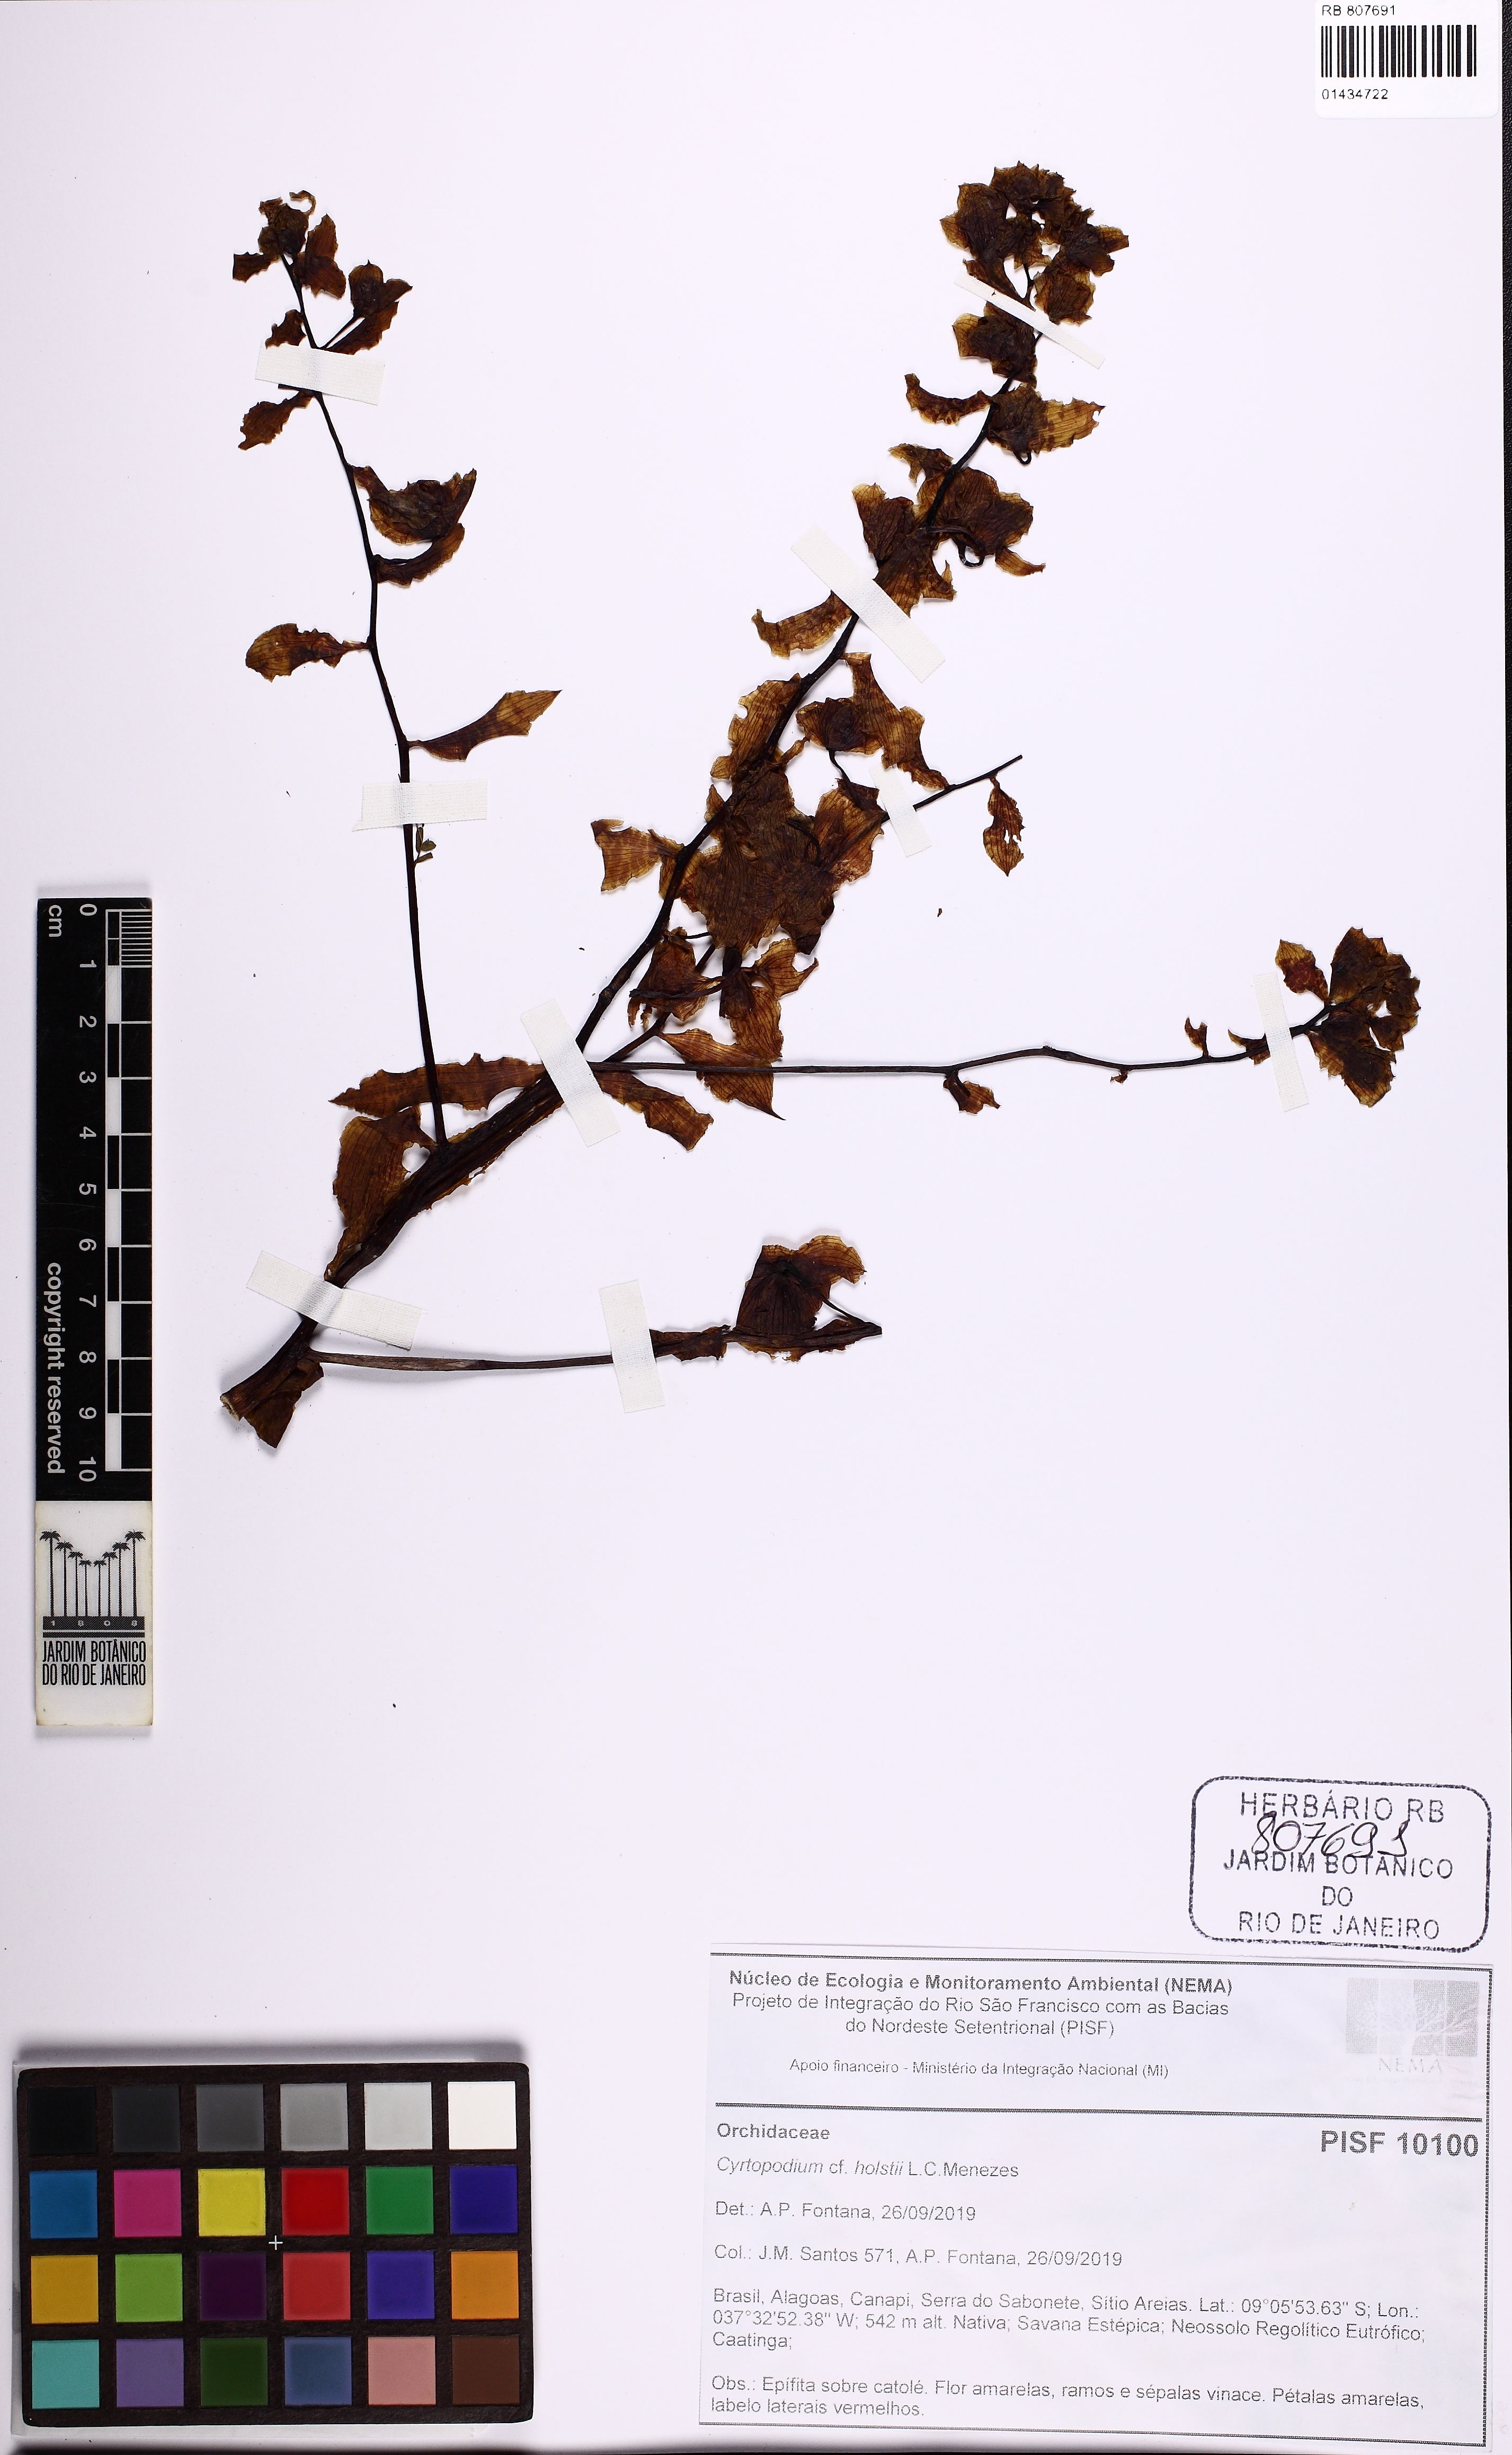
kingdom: Plantae
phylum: Tracheophyta
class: Liliopsida
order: Asparagales
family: Orchidaceae
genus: Cyrtopodium
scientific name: Cyrtopodium holstii
